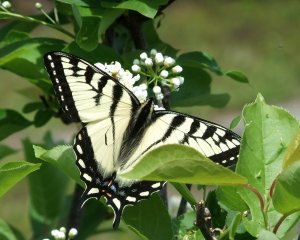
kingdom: Animalia
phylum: Arthropoda
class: Insecta
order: Lepidoptera
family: Papilionidae
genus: Pterourus
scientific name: Pterourus canadensis
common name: Canadian Tiger Swallowtail
